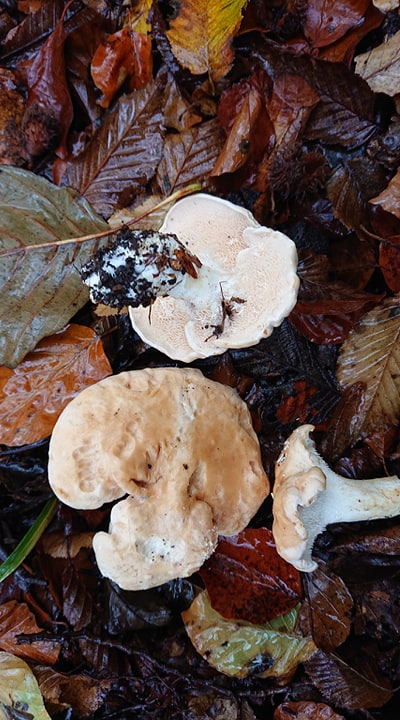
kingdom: Fungi
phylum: Basidiomycota
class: Agaricomycetes
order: Cantharellales
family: Hydnaceae
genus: Hydnum
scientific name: Hydnum repandum
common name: almindelig pigsvamp
